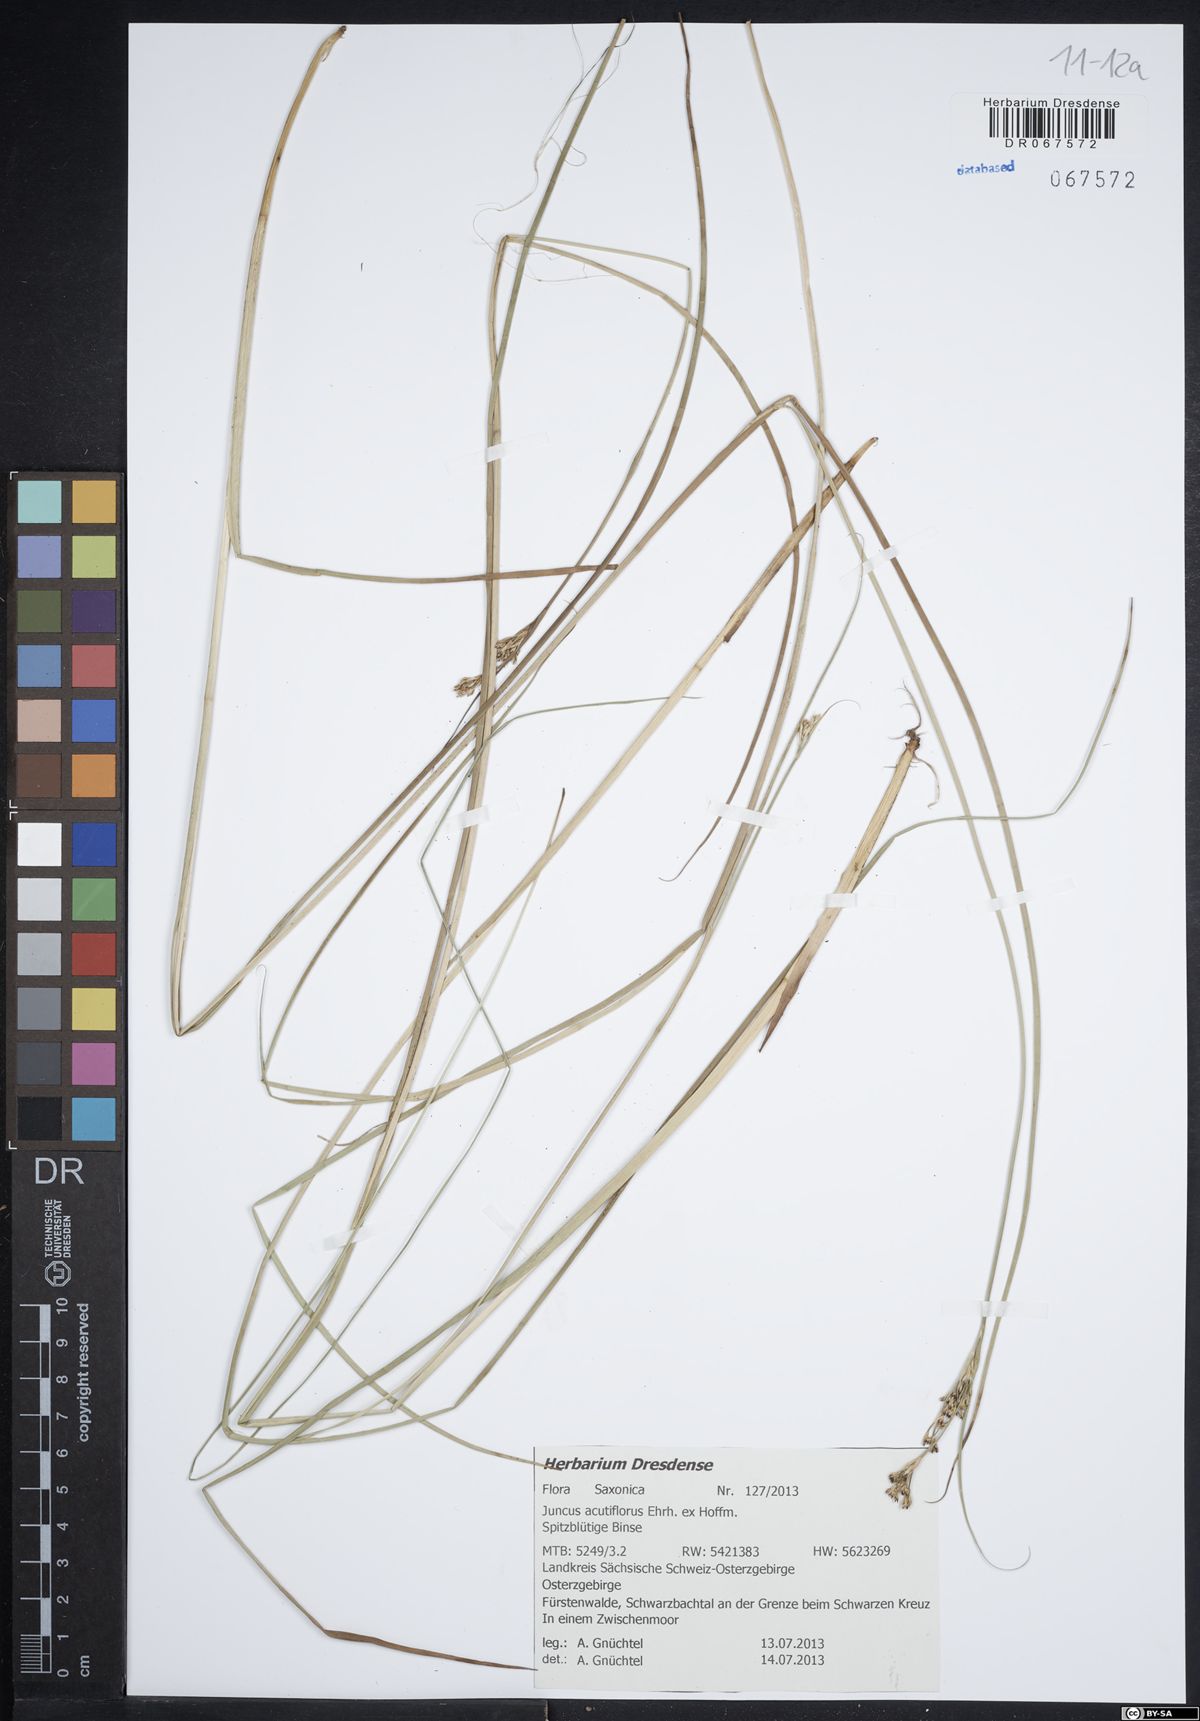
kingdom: Plantae
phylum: Tracheophyta
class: Liliopsida
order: Poales
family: Juncaceae
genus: Juncus
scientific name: Juncus acutiflorus
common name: Sharp-flowered rush
